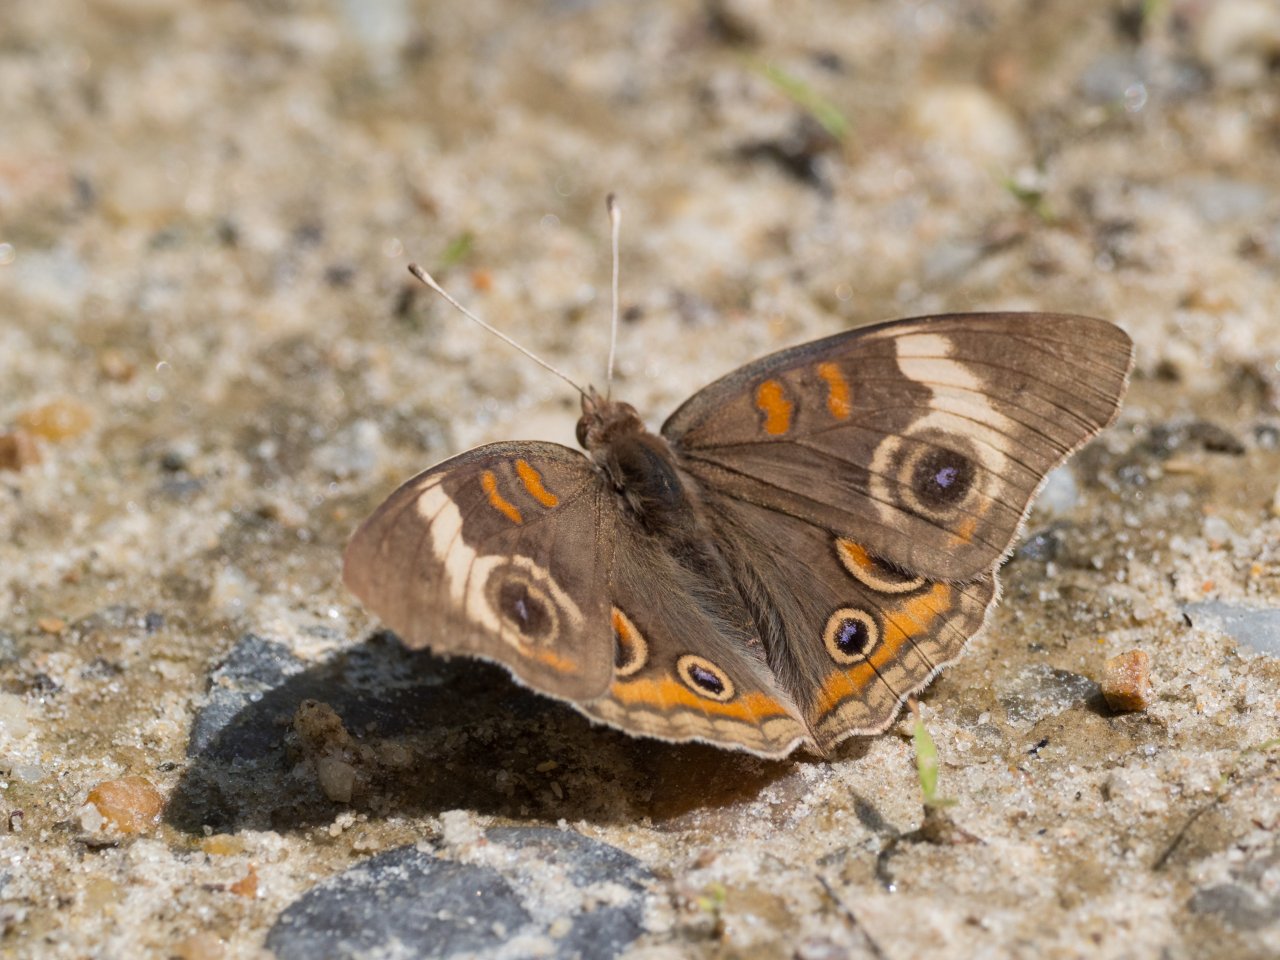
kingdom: Animalia
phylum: Arthropoda
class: Insecta
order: Lepidoptera
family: Nymphalidae
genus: Junonia
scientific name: Junonia coenia
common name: Common Buckeye
